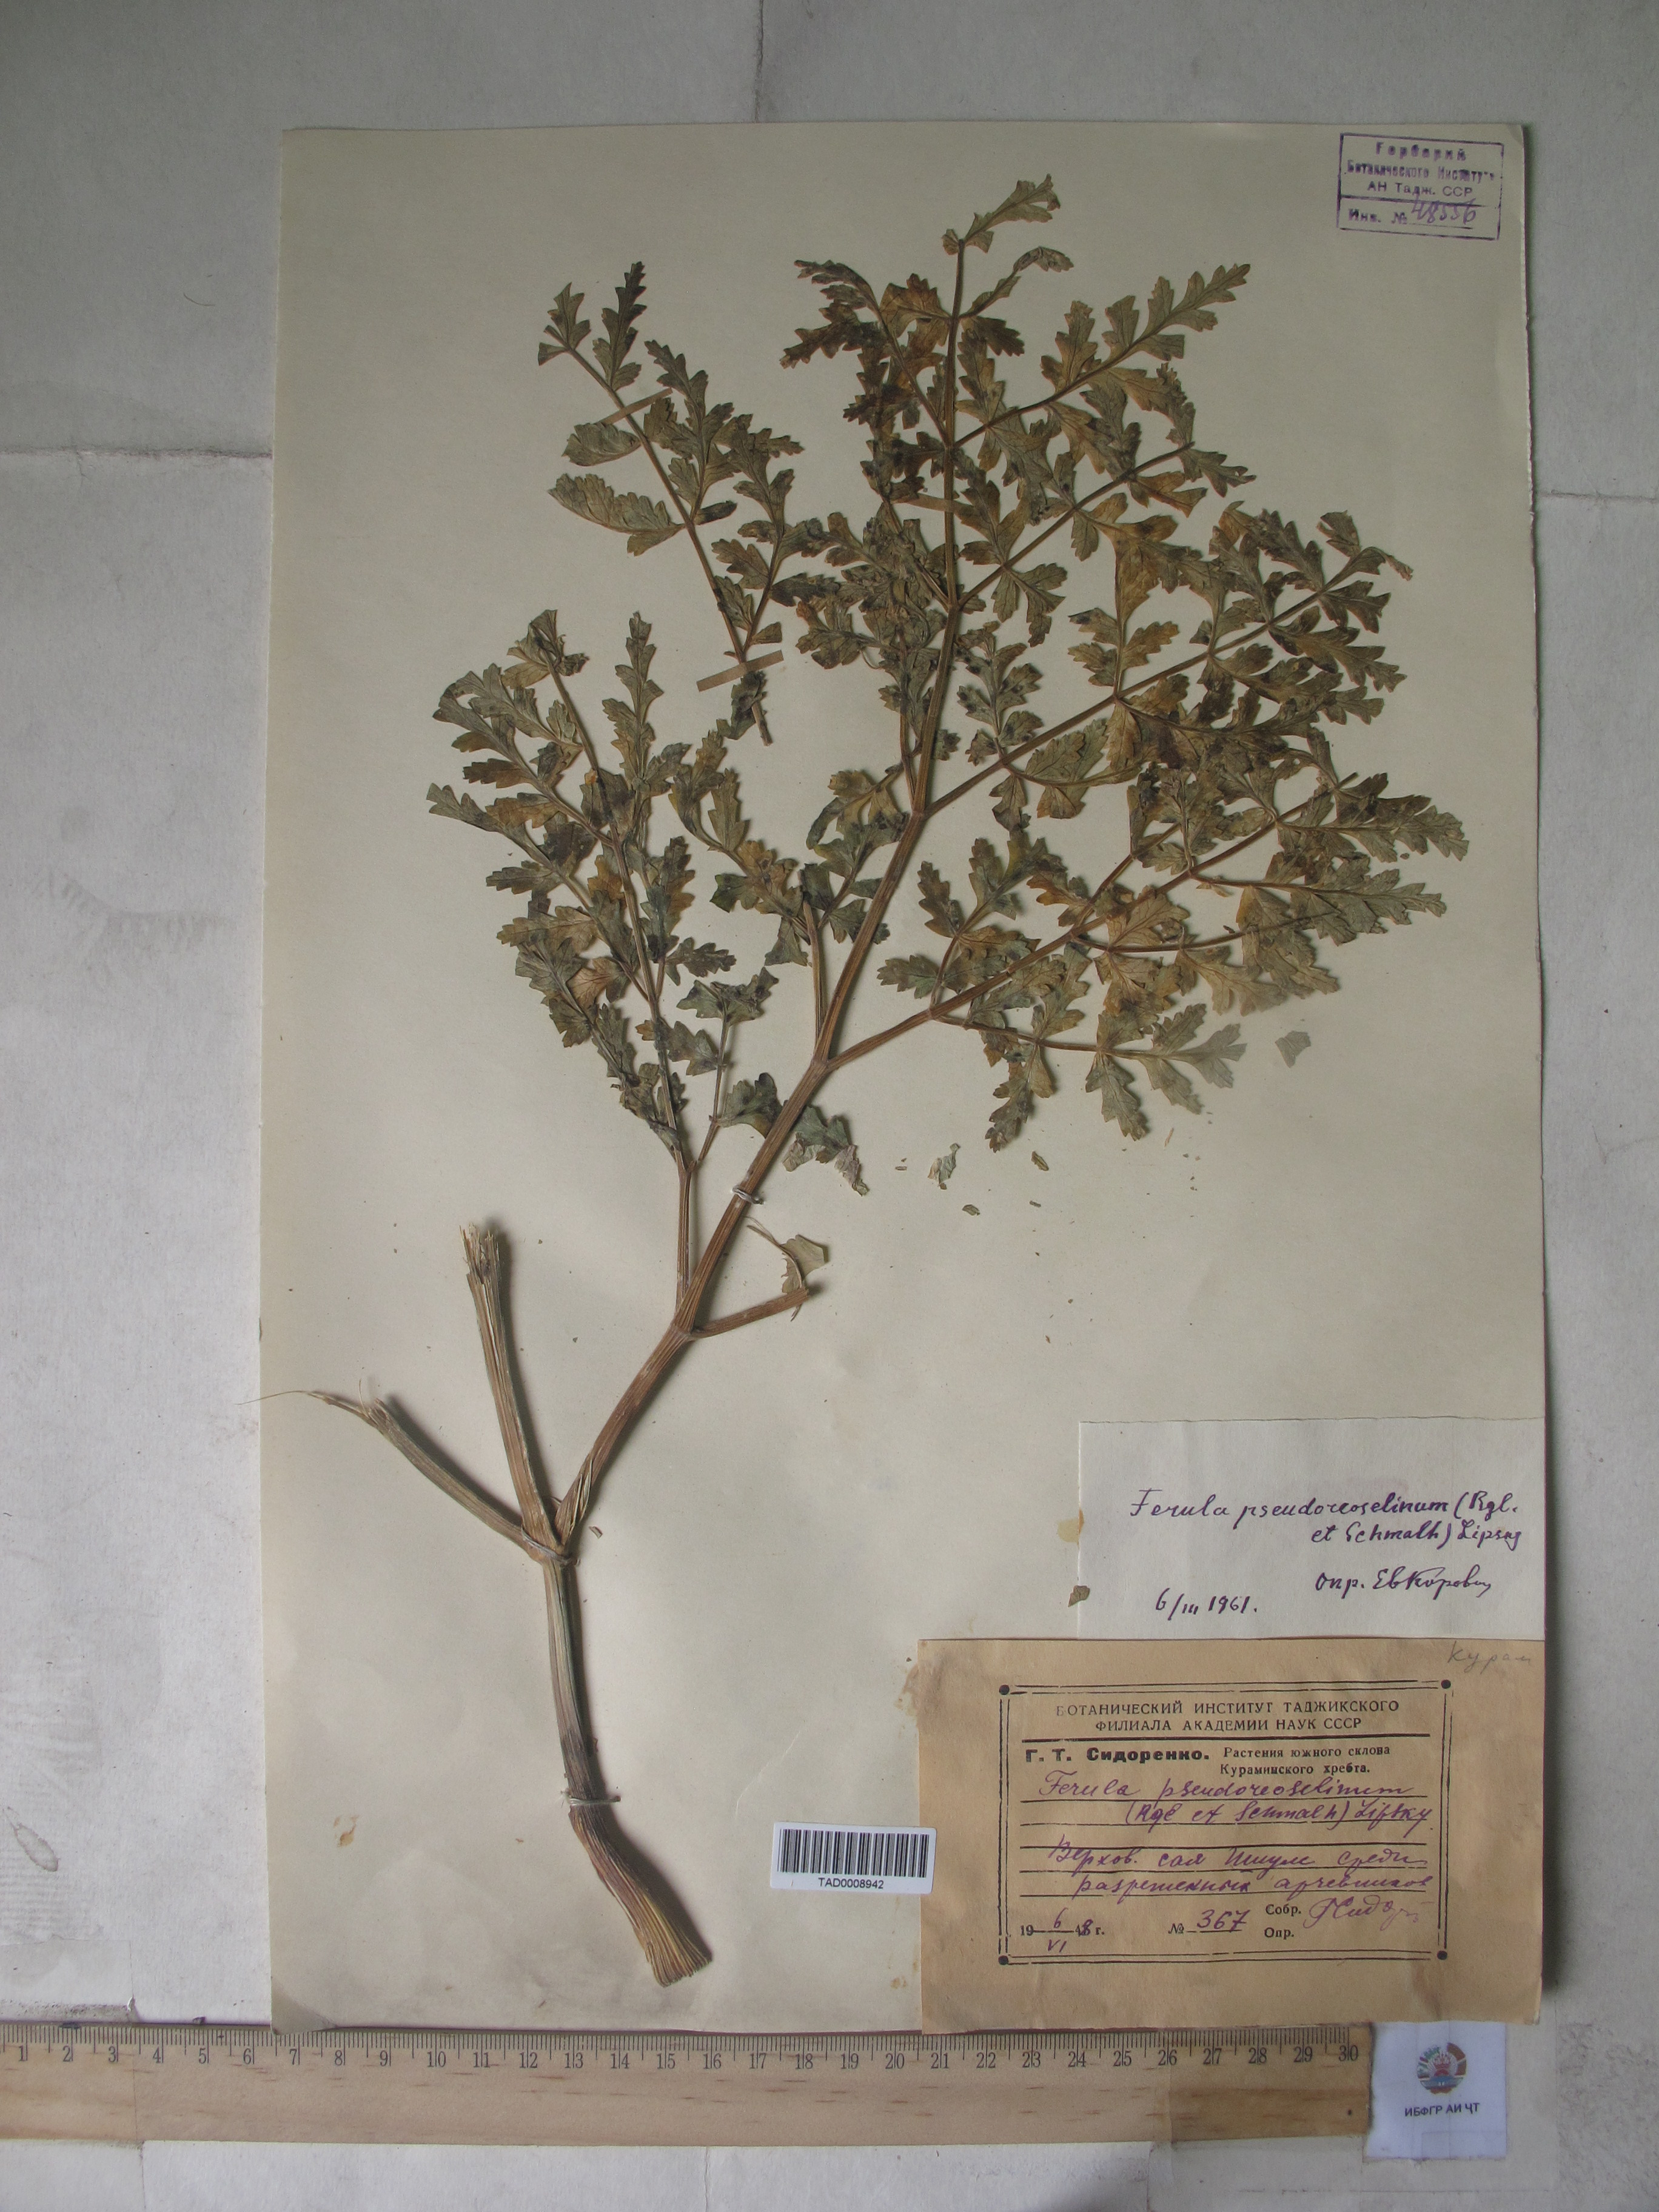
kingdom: Plantae
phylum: Tracheophyta
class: Magnoliopsida
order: Apiales
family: Apiaceae
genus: Ferula
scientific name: Ferula kirialovii
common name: Kumot
